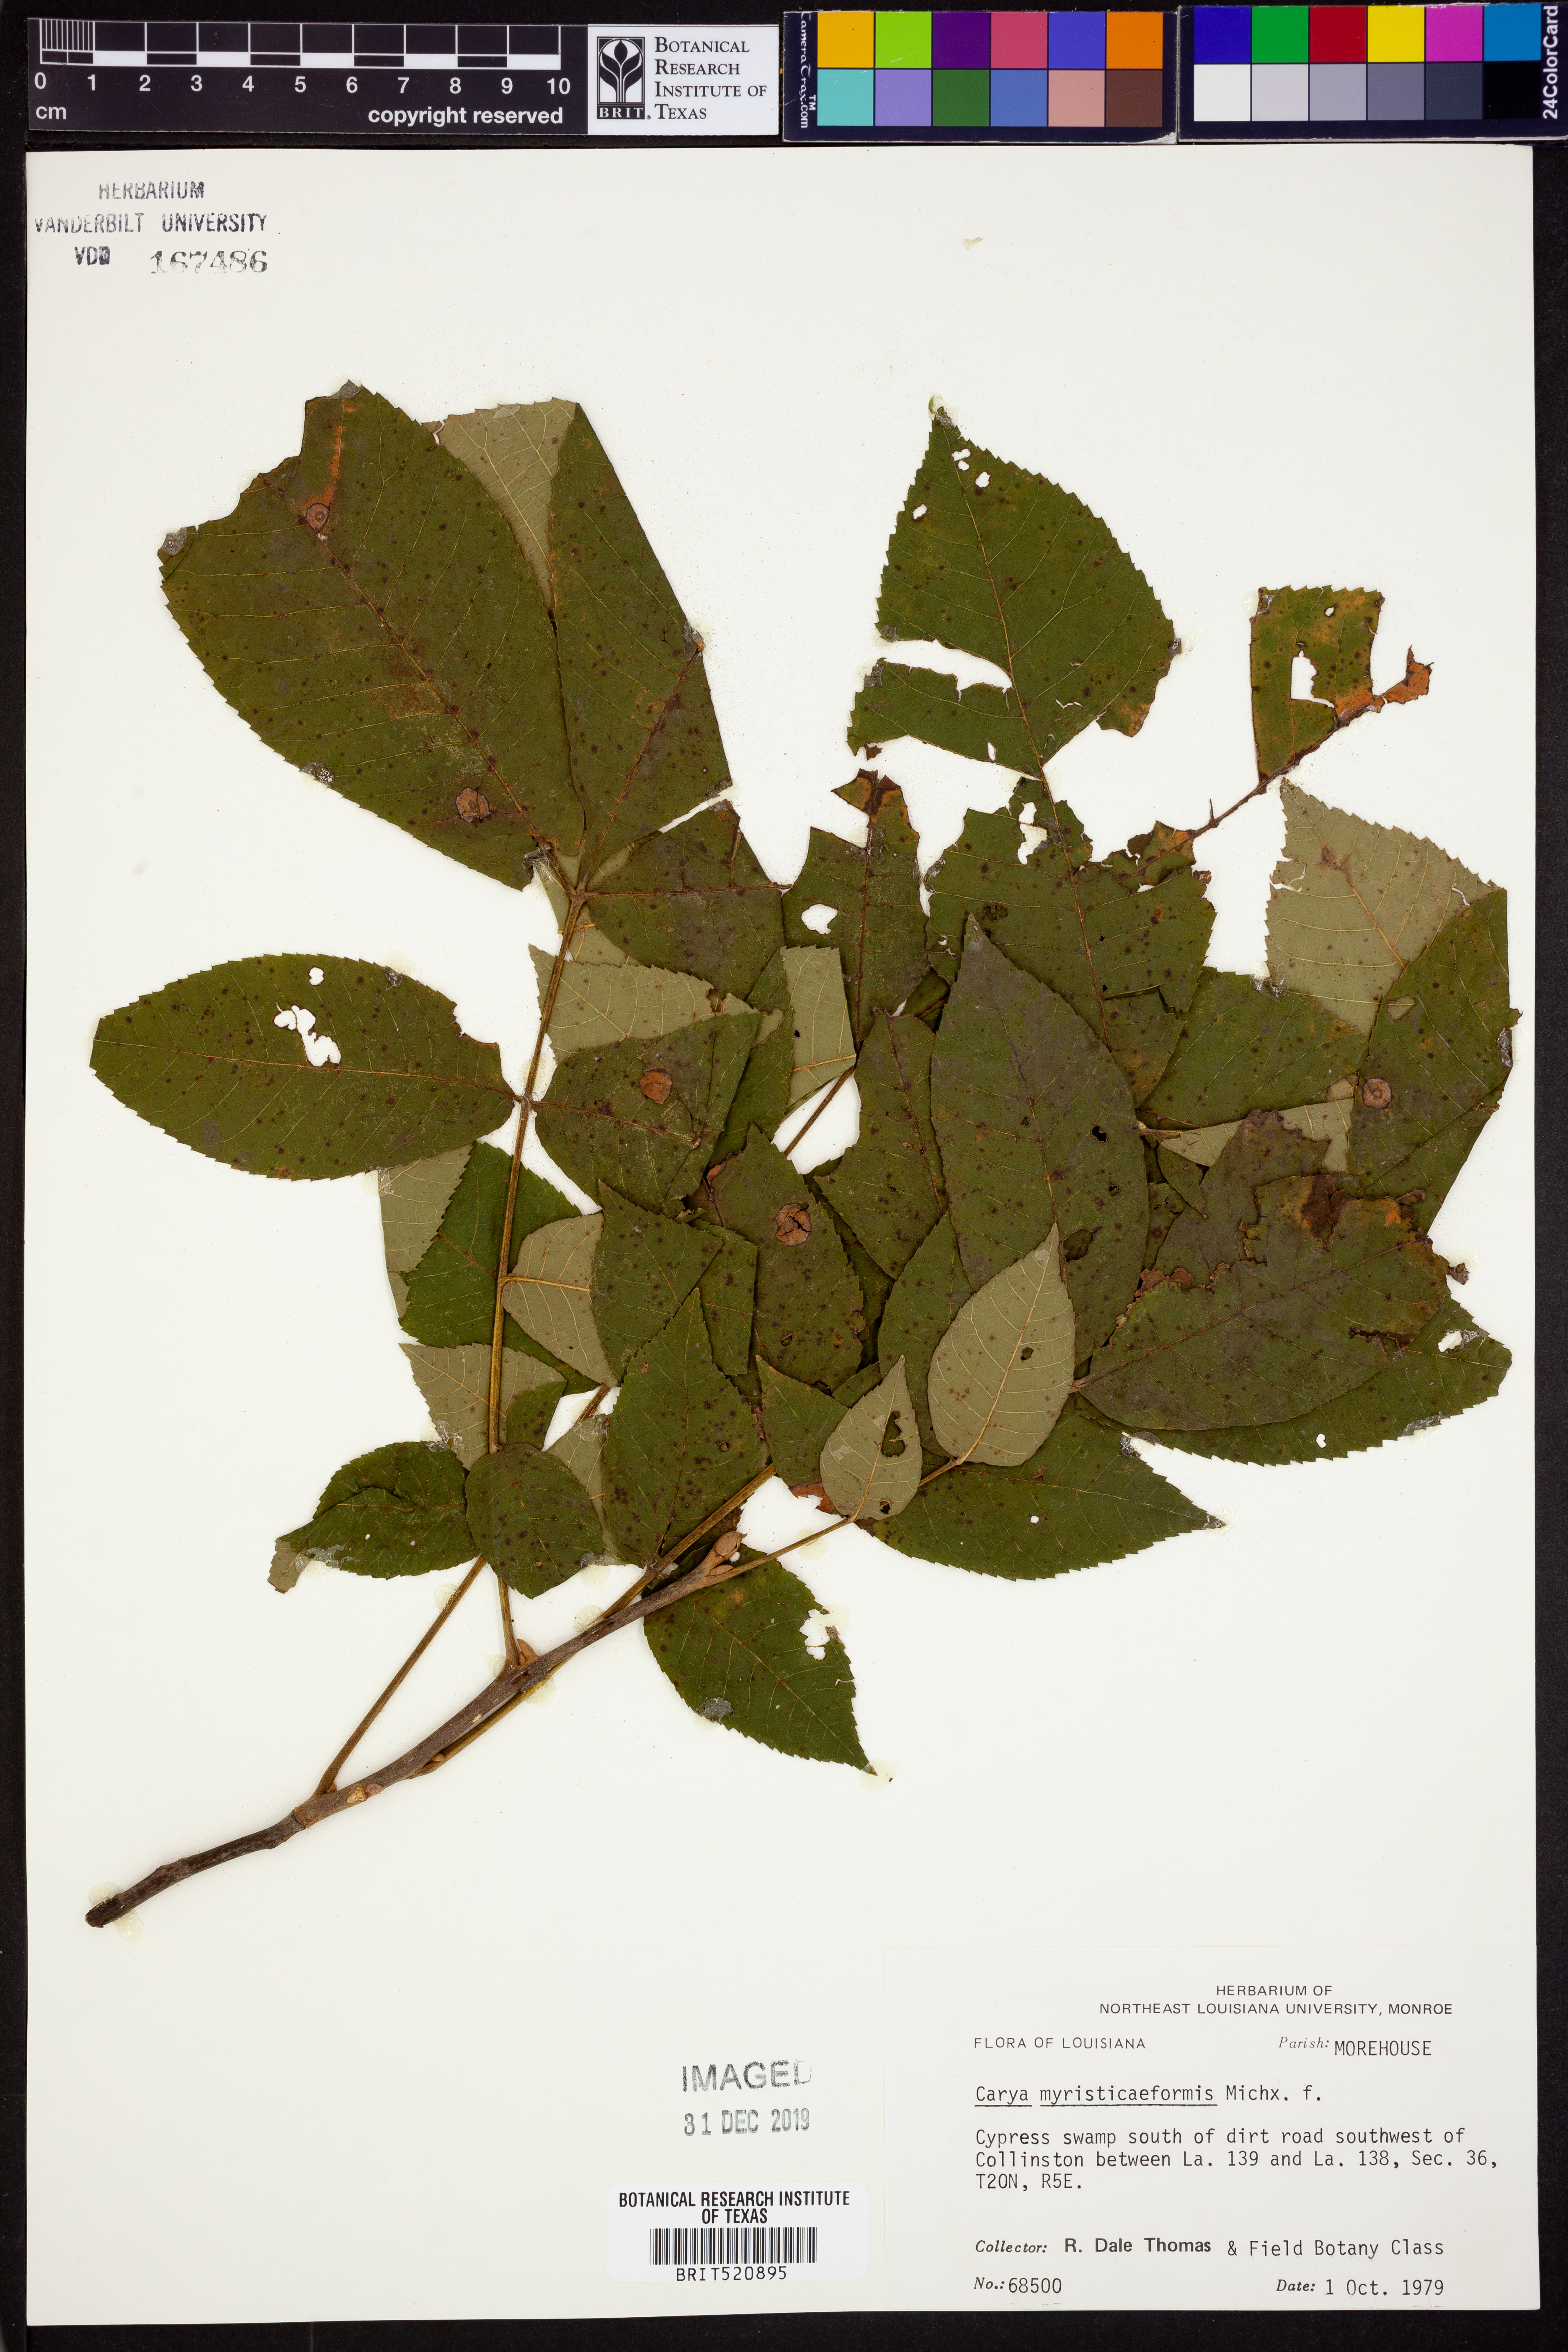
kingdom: Plantae
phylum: Tracheophyta
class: Magnoliopsida
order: Fagales
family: Juglandaceae
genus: Carya
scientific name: Carya myristiciformis
